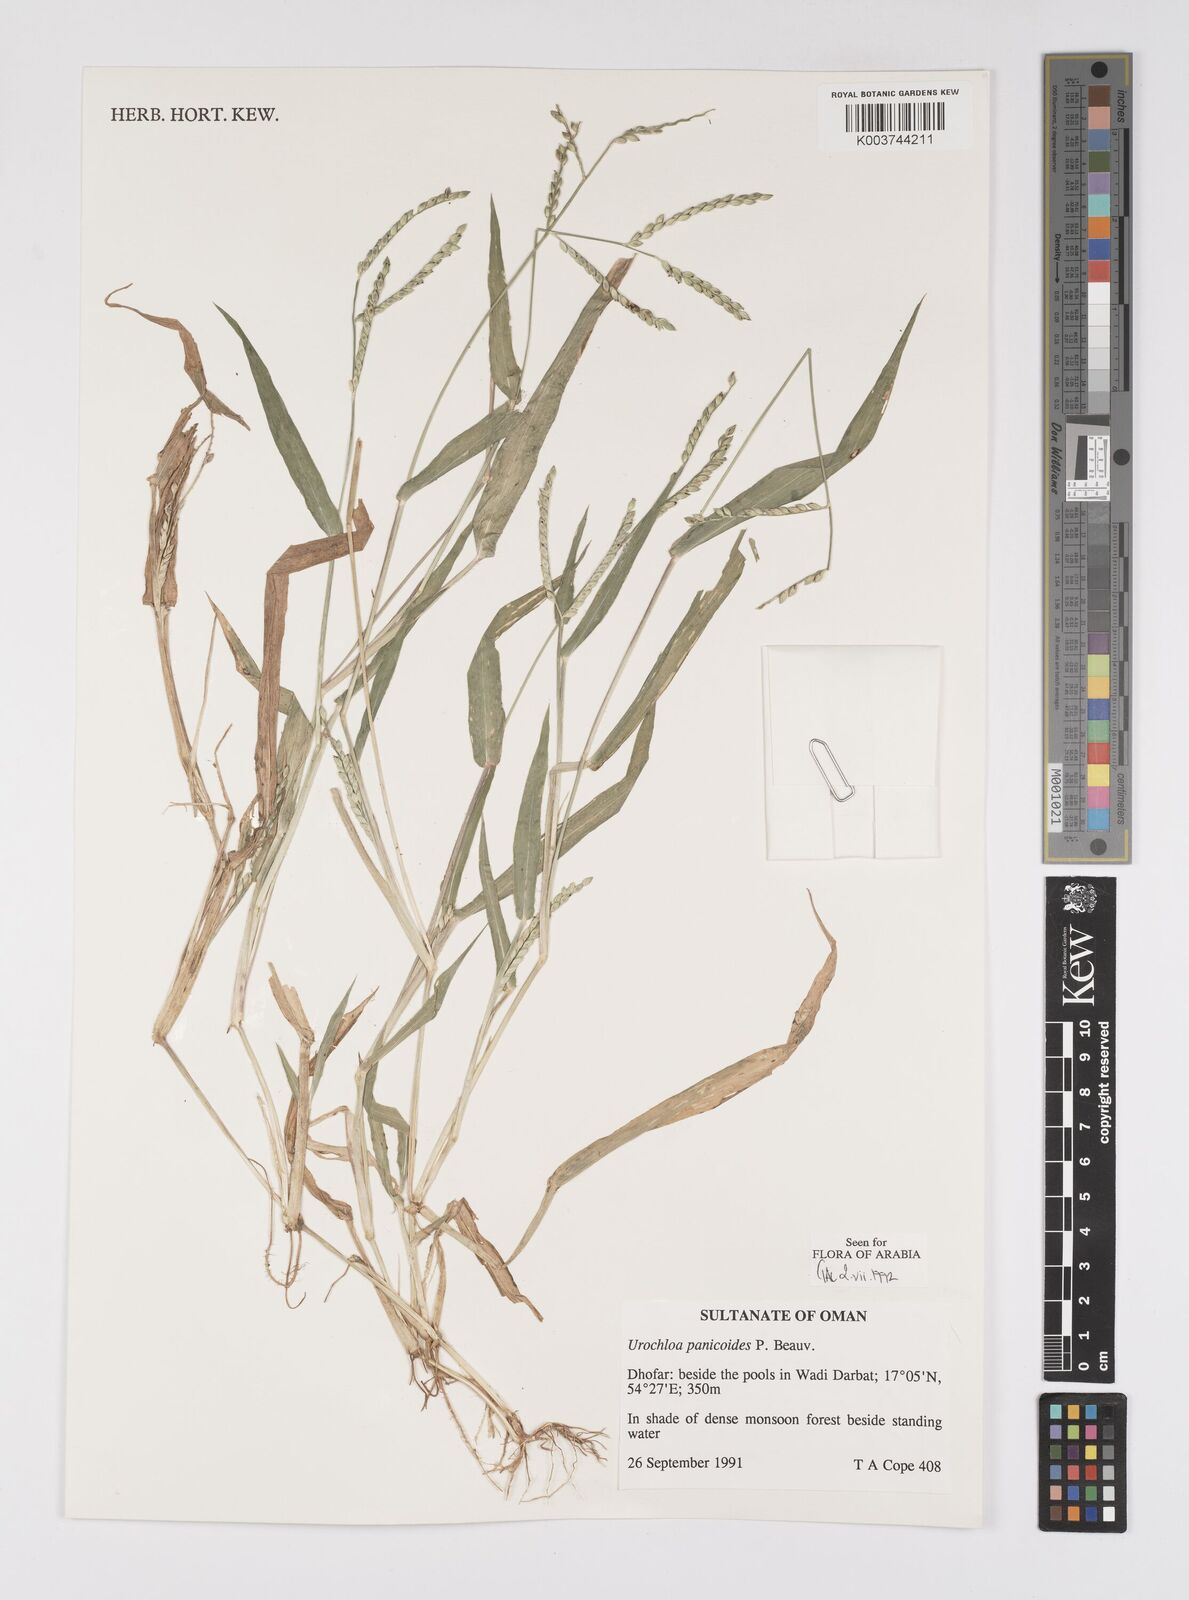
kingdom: Plantae
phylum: Tracheophyta
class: Liliopsida
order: Poales
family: Poaceae
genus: Urochloa
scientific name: Urochloa panicoides
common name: Sharp-flowered signal-grass
